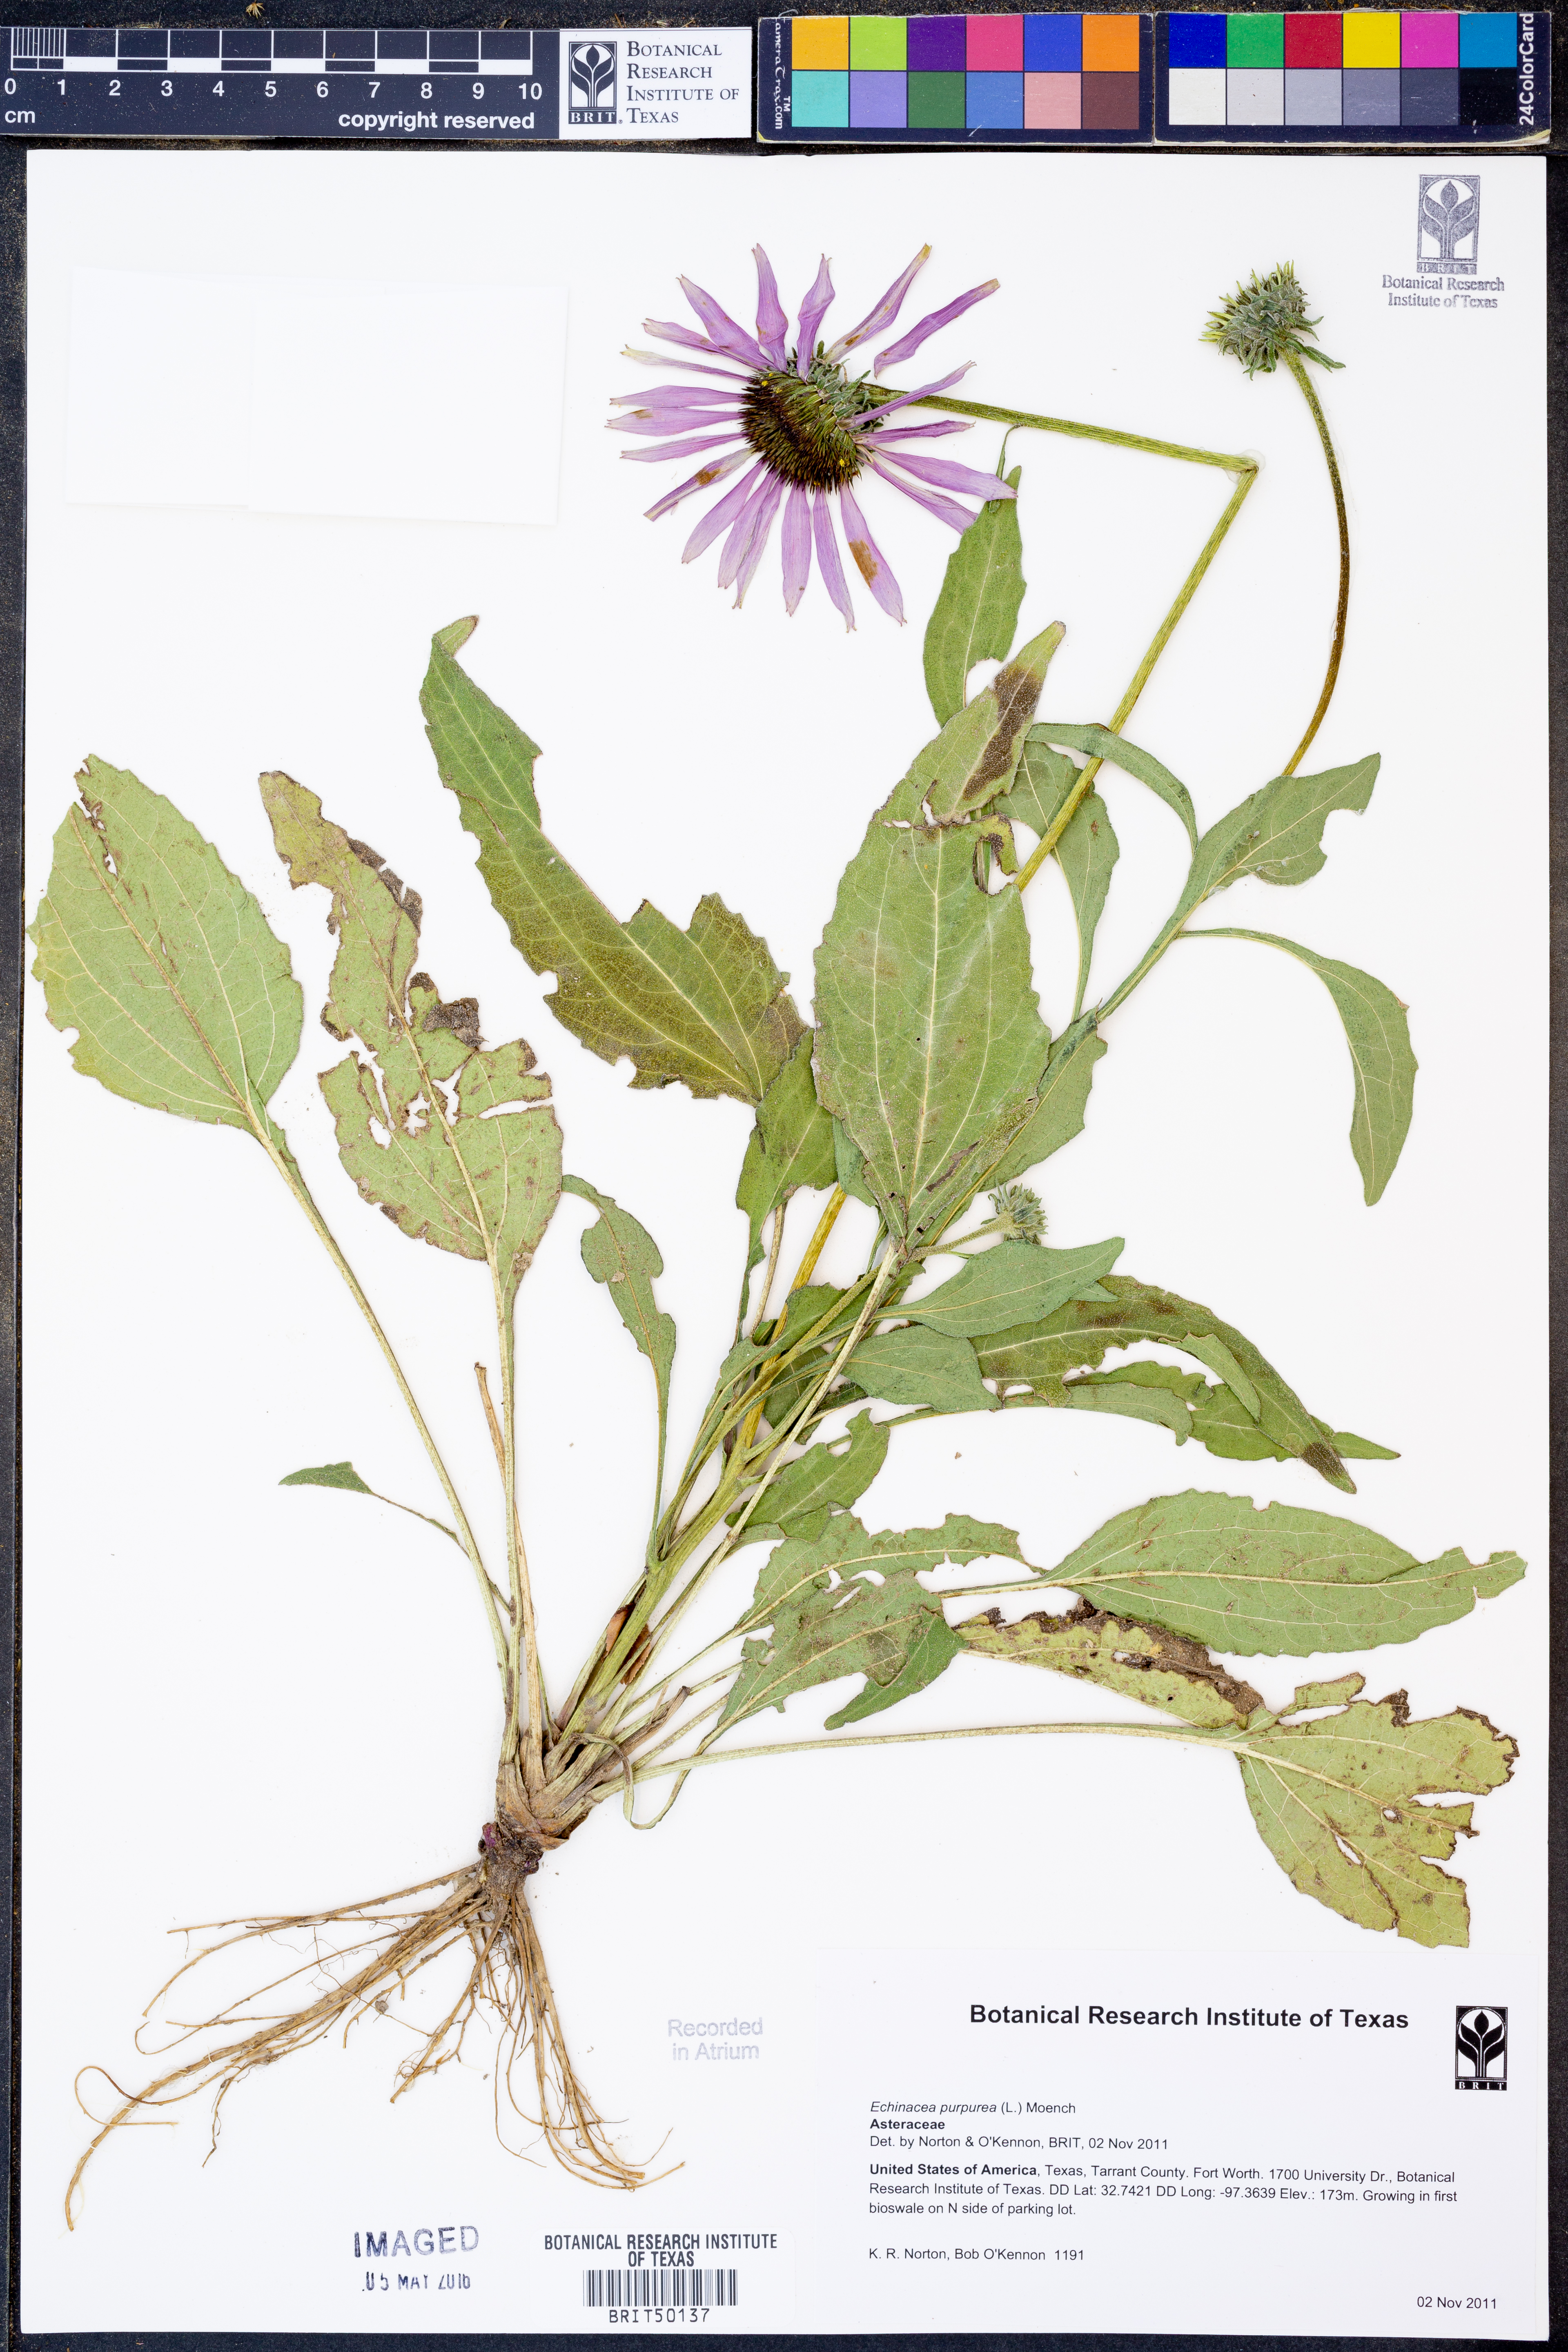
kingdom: Plantae
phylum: Tracheophyta
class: Magnoliopsida
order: Asterales
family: Asteraceae
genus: Echinacea
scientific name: Echinacea purpurea
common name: Broad-leaved purple coneflower
